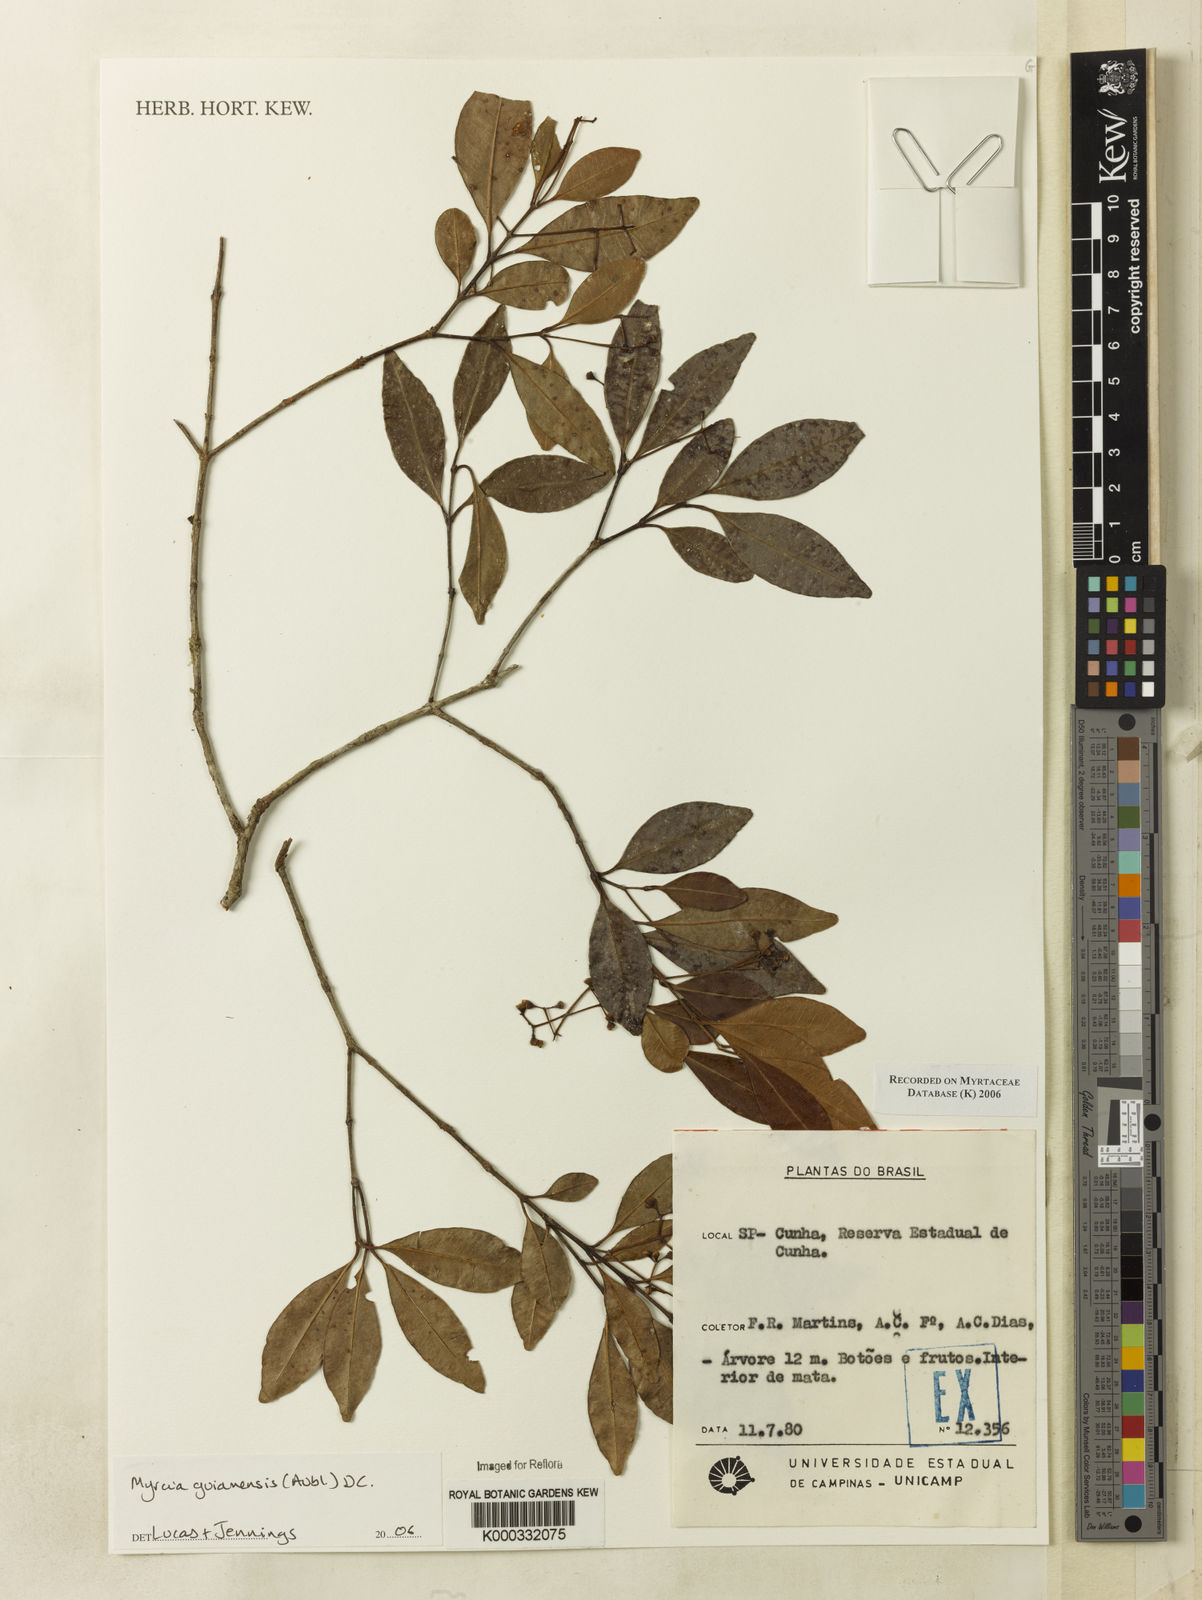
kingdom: Plantae
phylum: Tracheophyta
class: Magnoliopsida
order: Myrtales
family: Myrtaceae
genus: Myrcia
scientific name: Myrcia guianensis
